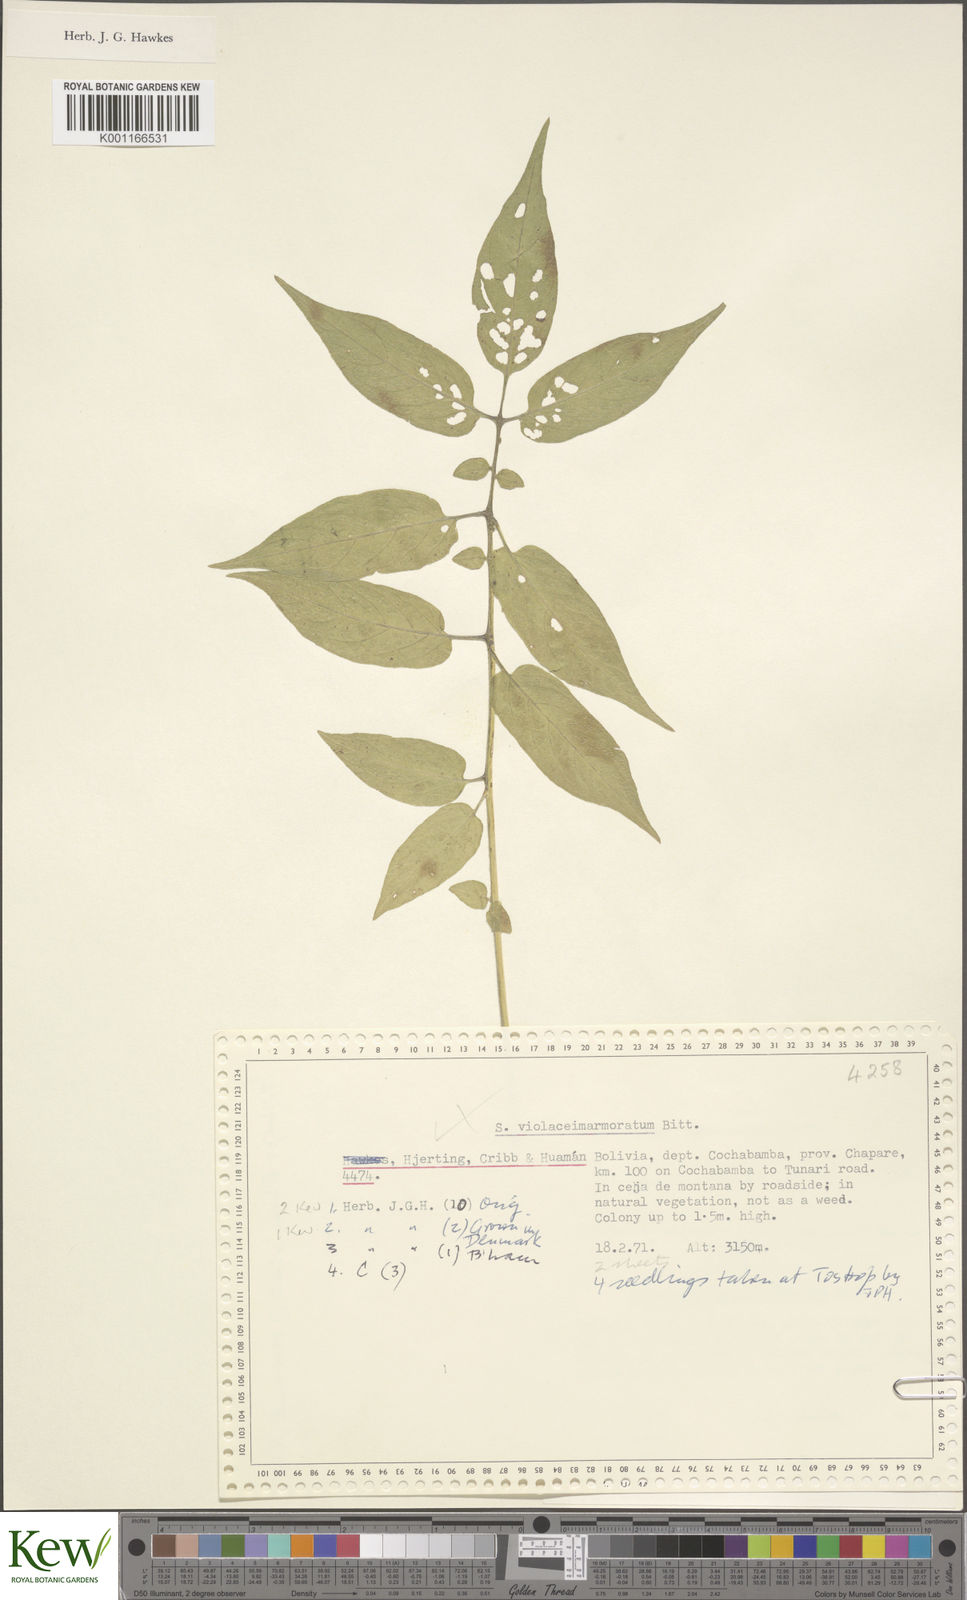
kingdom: Plantae
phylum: Tracheophyta
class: Magnoliopsida
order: Solanales
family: Solanaceae
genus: Solanum
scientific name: Solanum violaceimarmoratum
